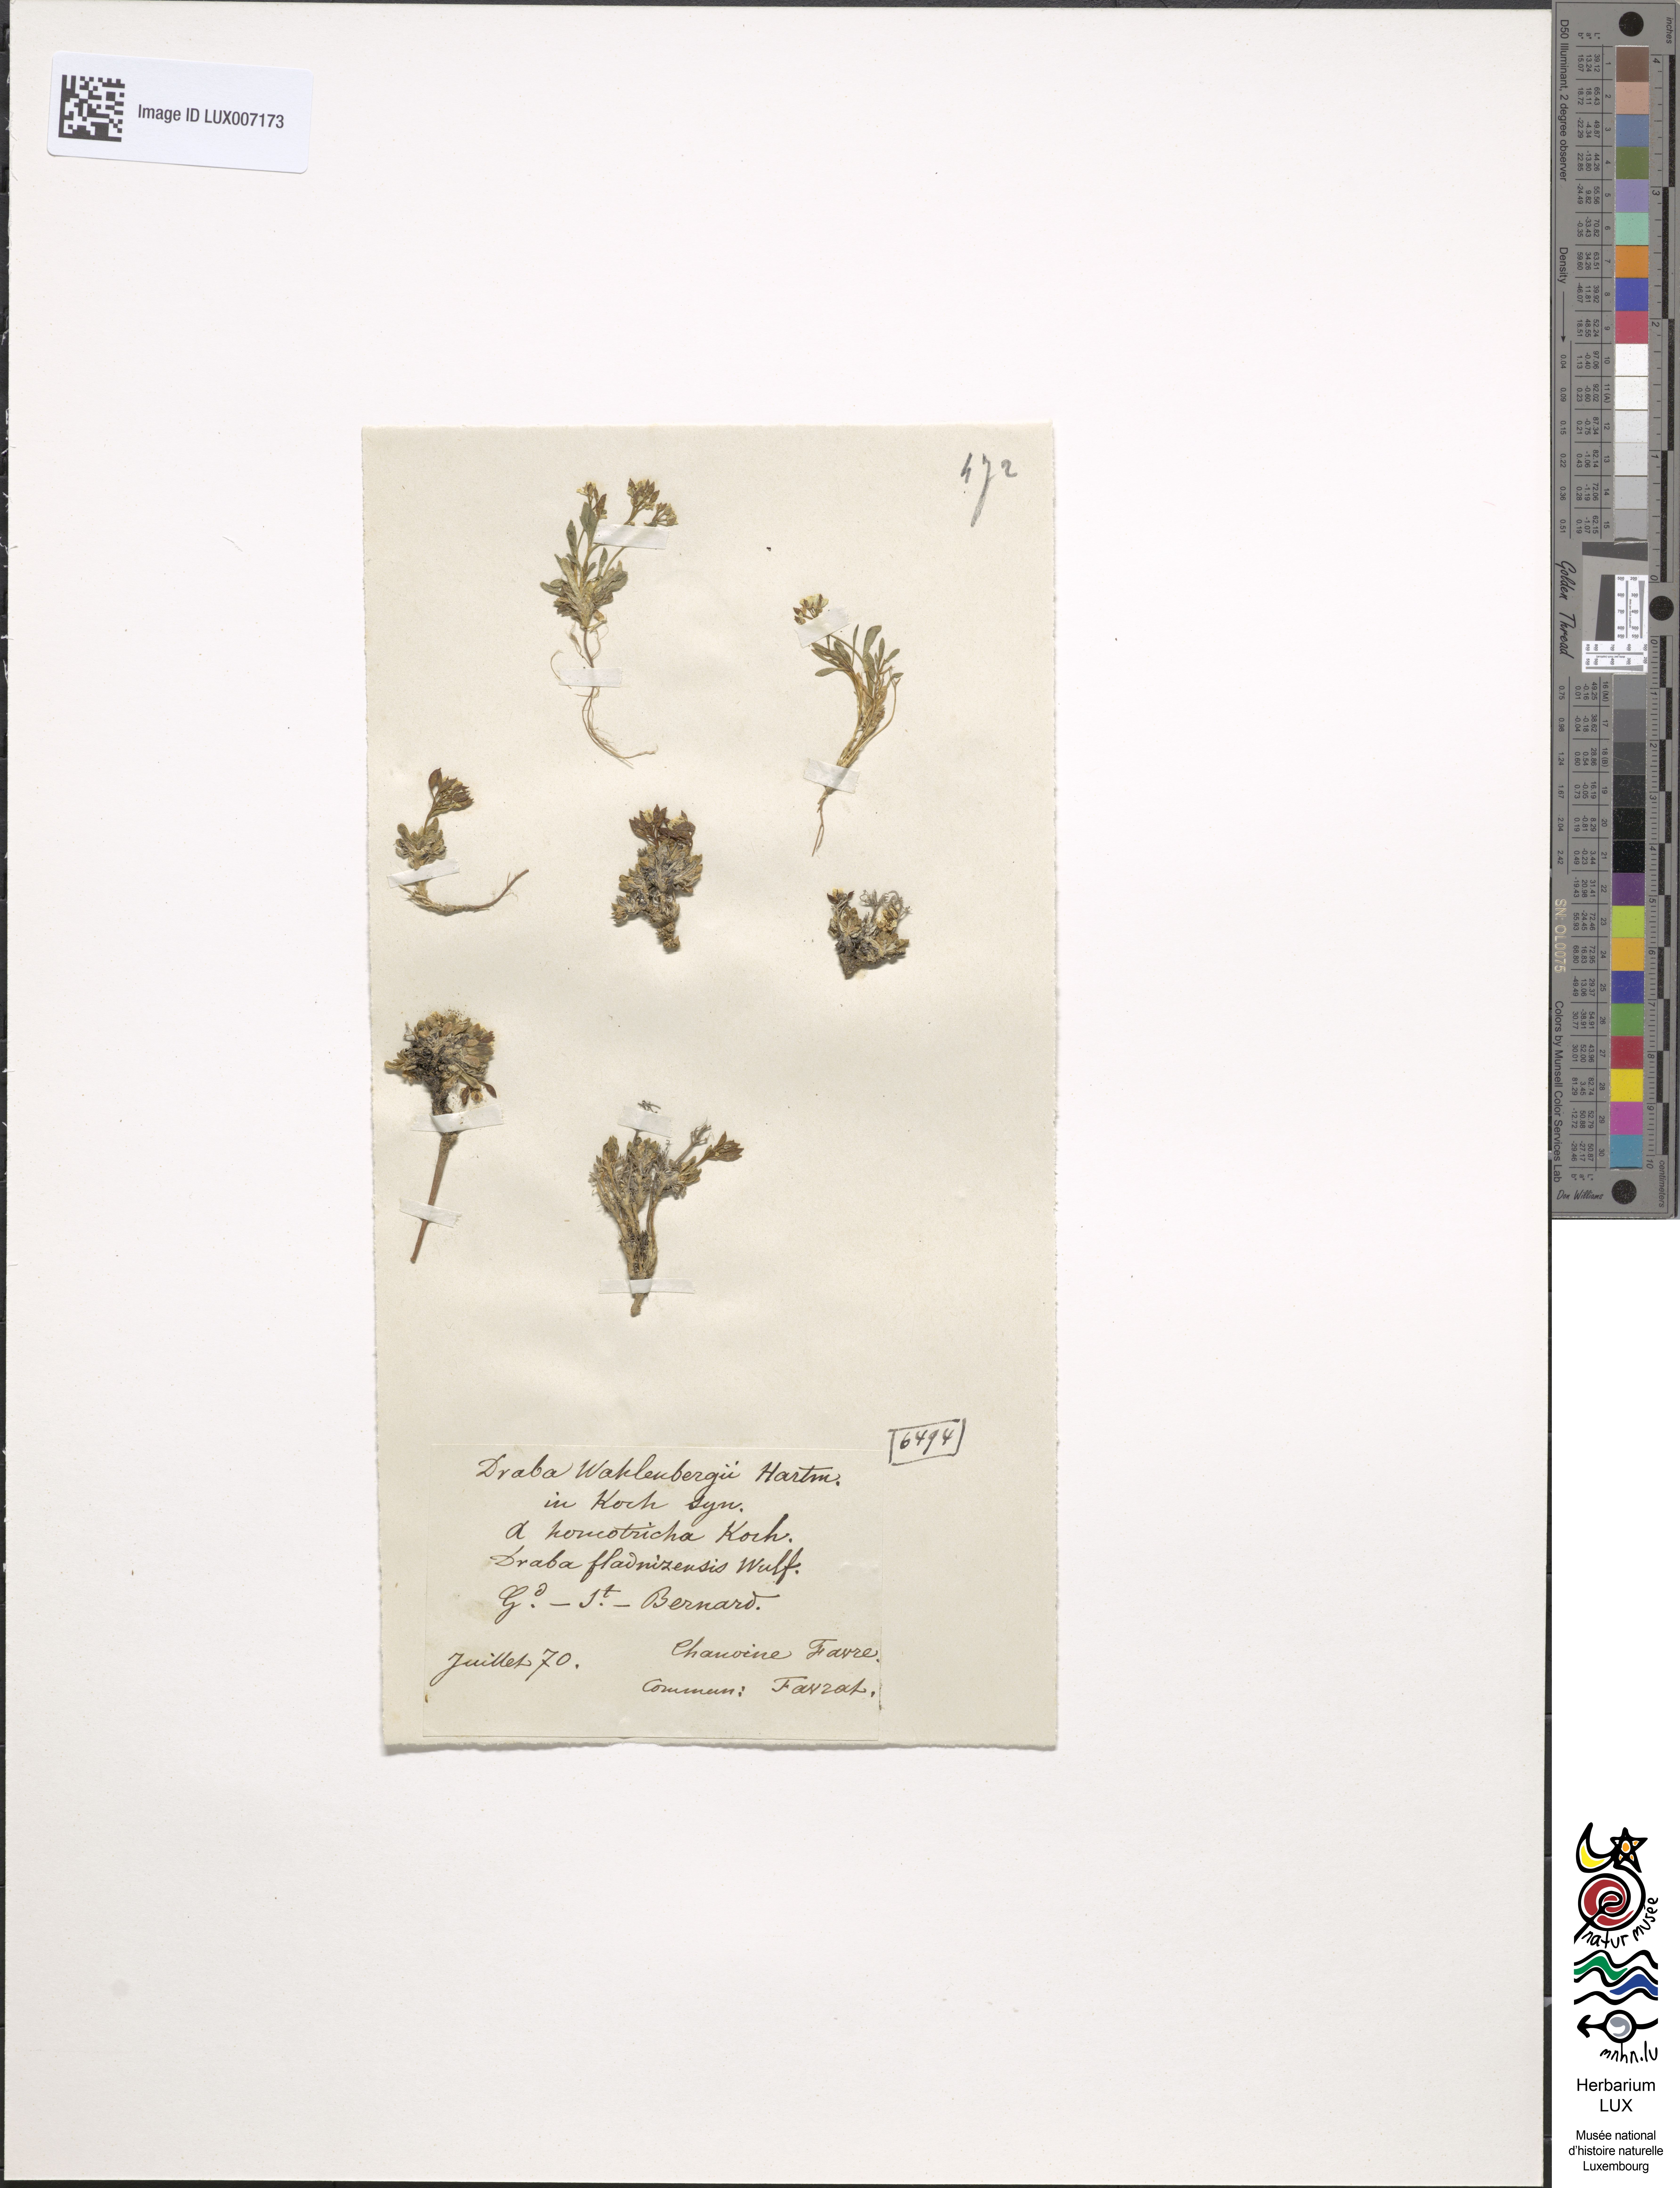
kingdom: Plantae
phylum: Tracheophyta
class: Magnoliopsida
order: Brassicales
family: Brassicaceae
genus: Draba
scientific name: Draba fladnizensis
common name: Austrian draba
